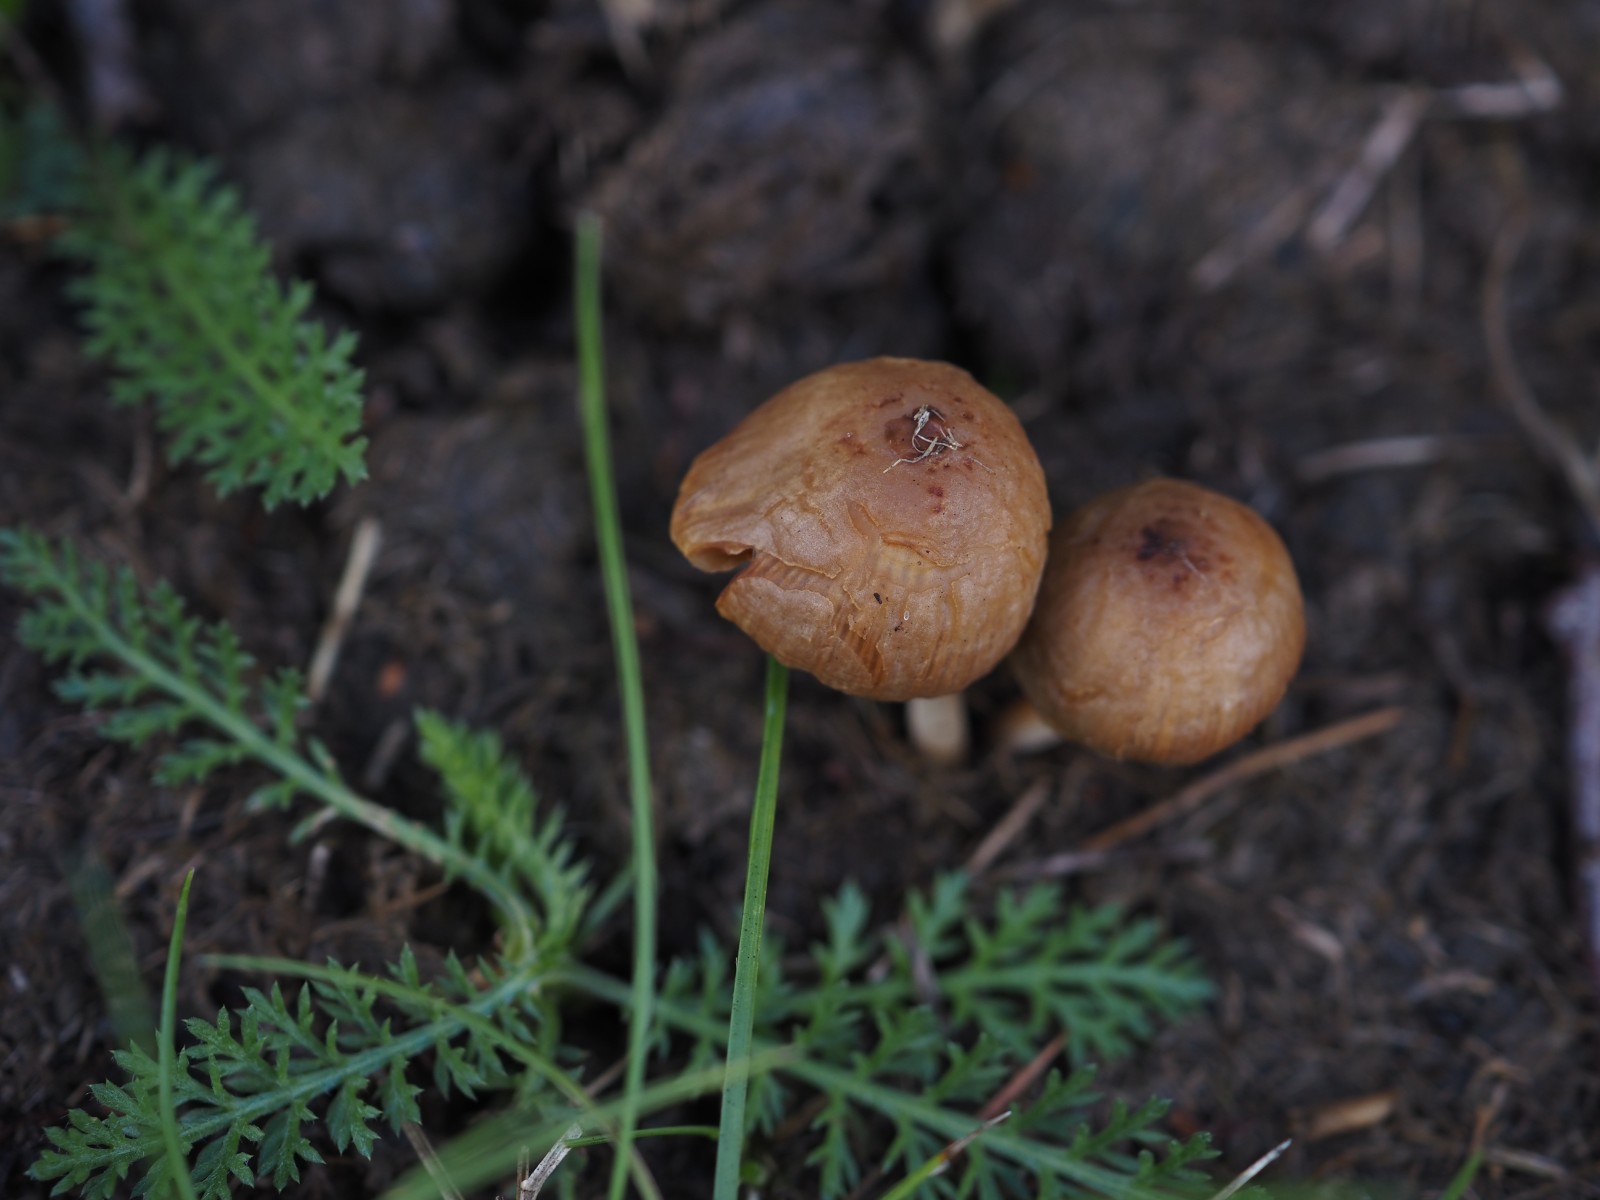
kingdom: Fungi
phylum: Basidiomycota
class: Agaricomycetes
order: Agaricales
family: Bolbitiaceae
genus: Conocybe
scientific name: Conocybe
